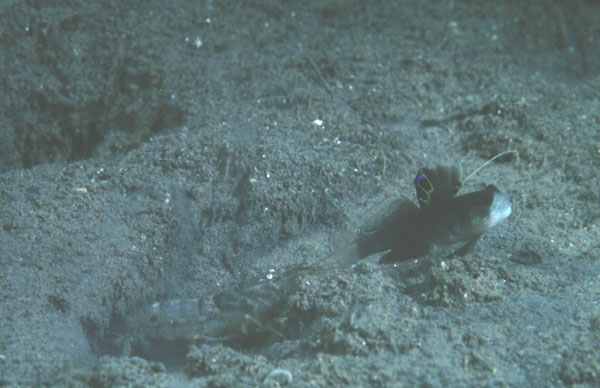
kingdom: Animalia
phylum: Chordata
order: Perciformes
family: Gobiidae
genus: Mahidolia
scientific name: Mahidolia
